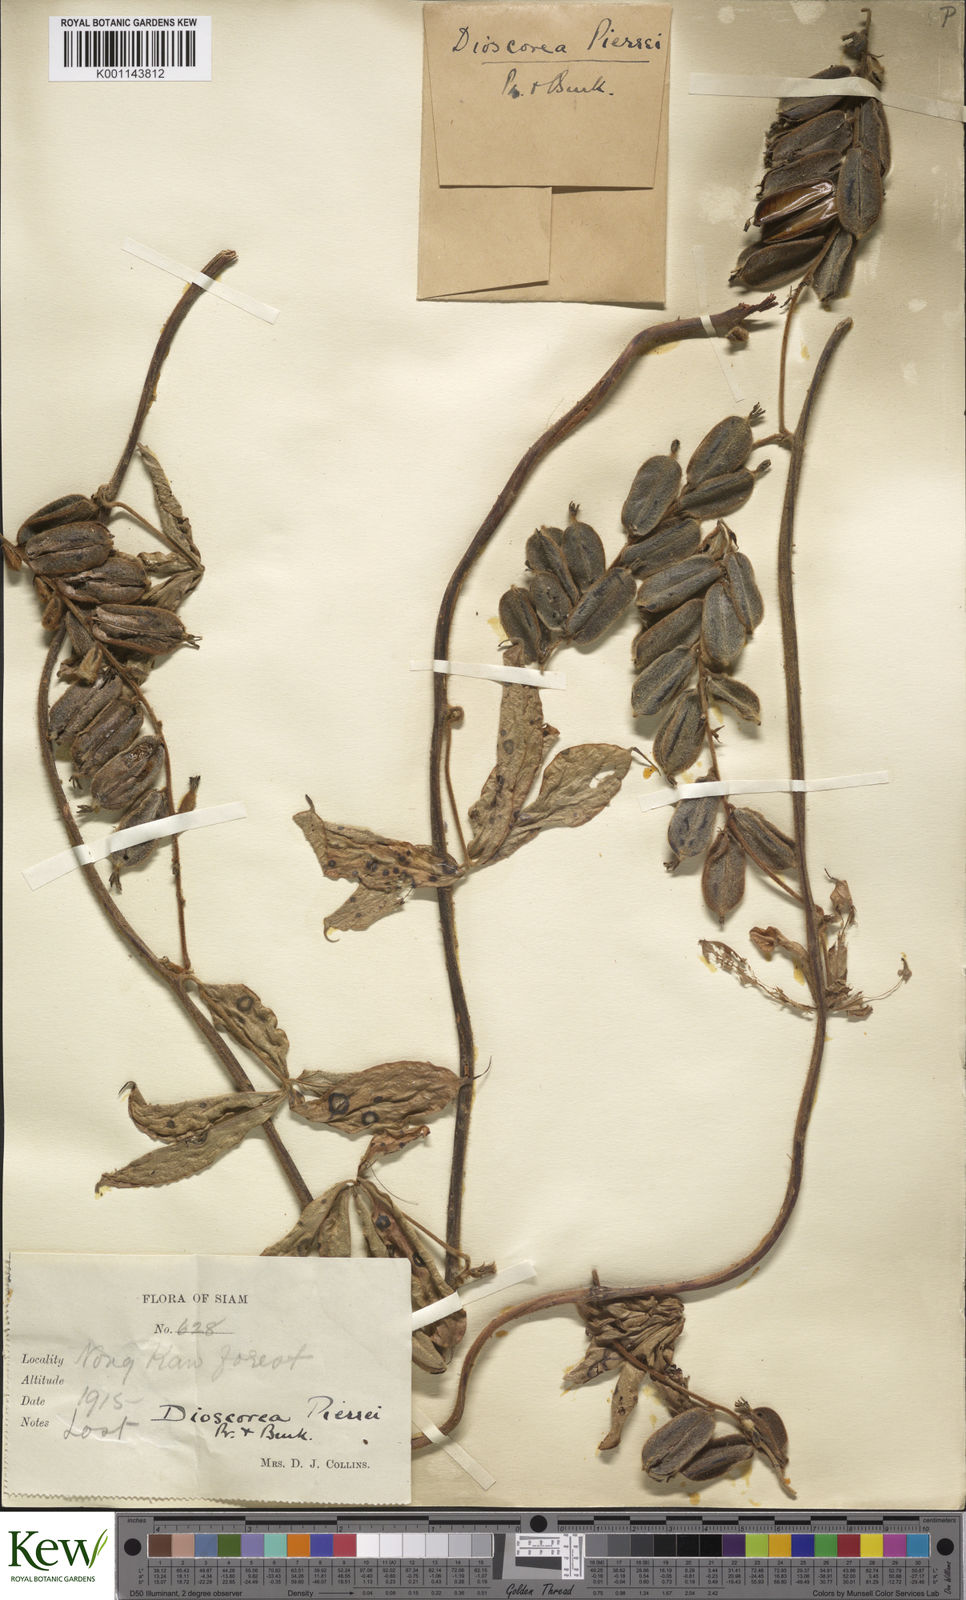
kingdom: Plantae
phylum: Tracheophyta
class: Liliopsida
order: Dioscoreales
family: Dioscoreaceae
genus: Dioscorea
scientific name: Dioscorea pierrei
